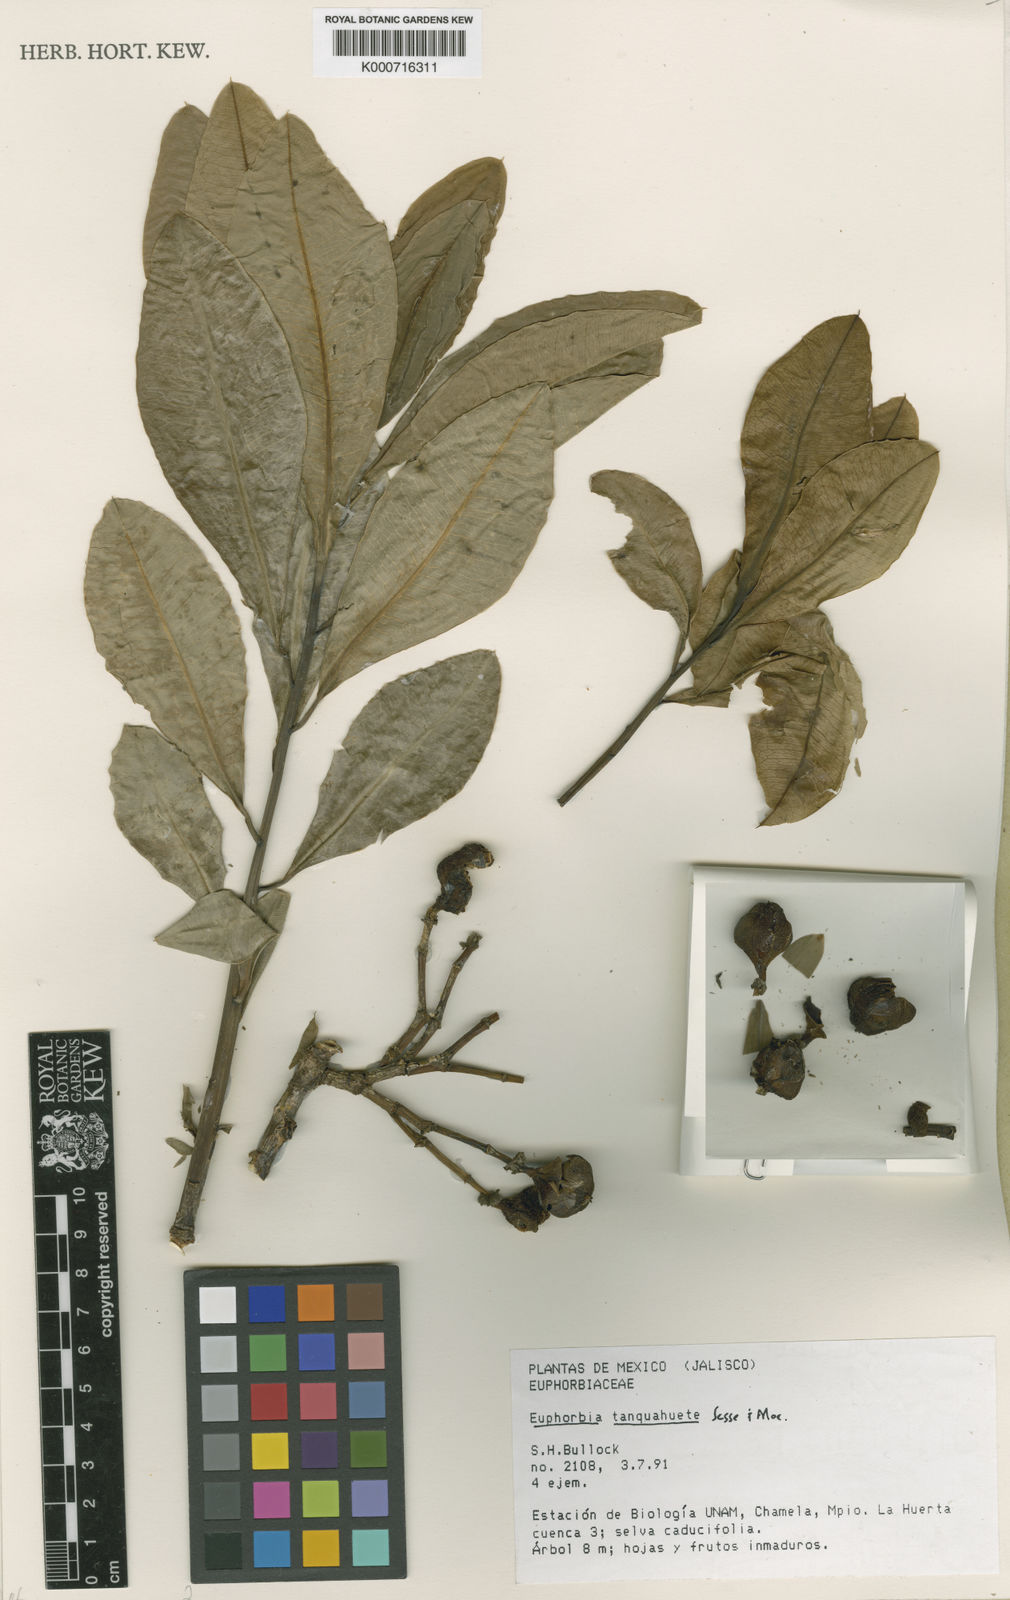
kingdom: Plantae
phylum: Tracheophyta
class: Magnoliopsida
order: Malpighiales
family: Euphorbiaceae
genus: Euphorbia
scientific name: Euphorbia
